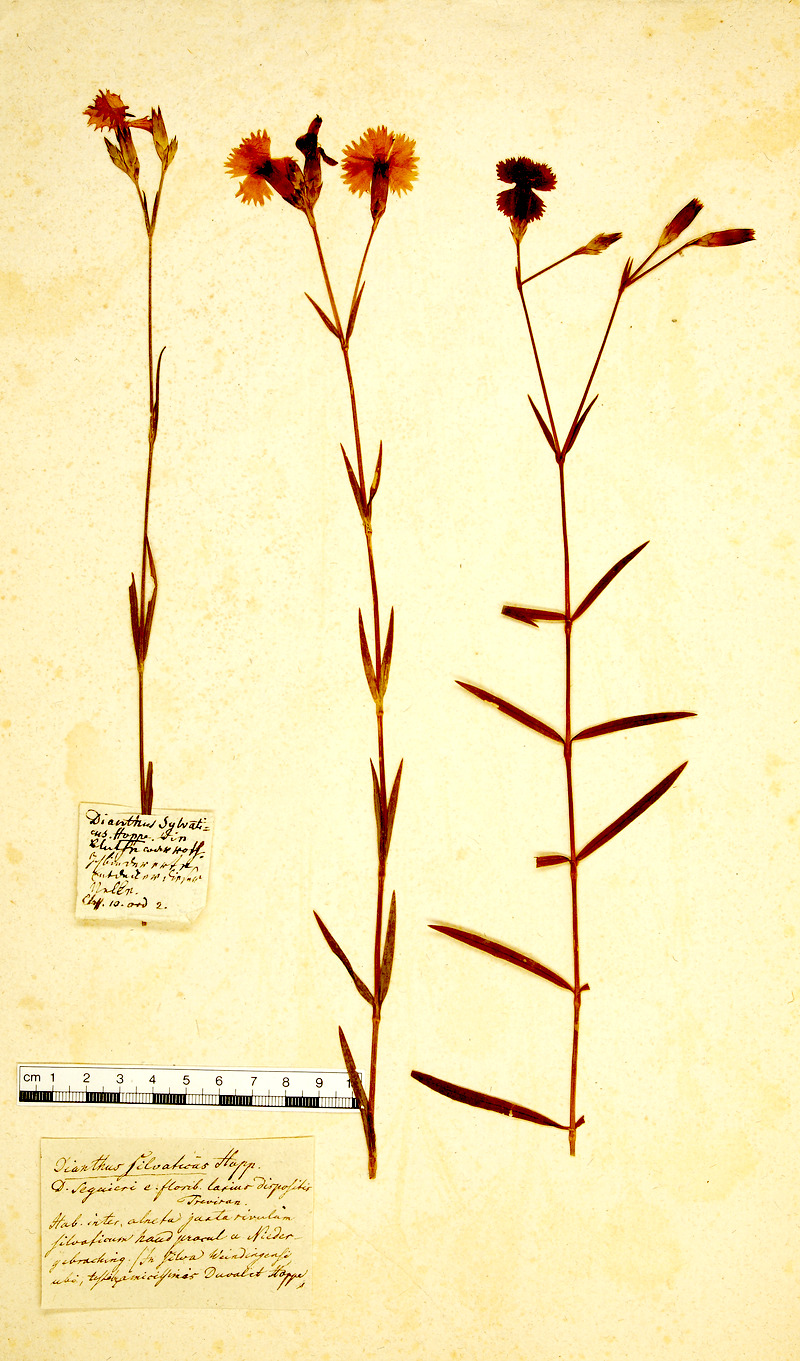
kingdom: Plantae
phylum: Tracheophyta
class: Magnoliopsida
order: Caryophyllales
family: Caryophyllaceae
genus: Dianthus
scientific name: Dianthus sylvaticus
